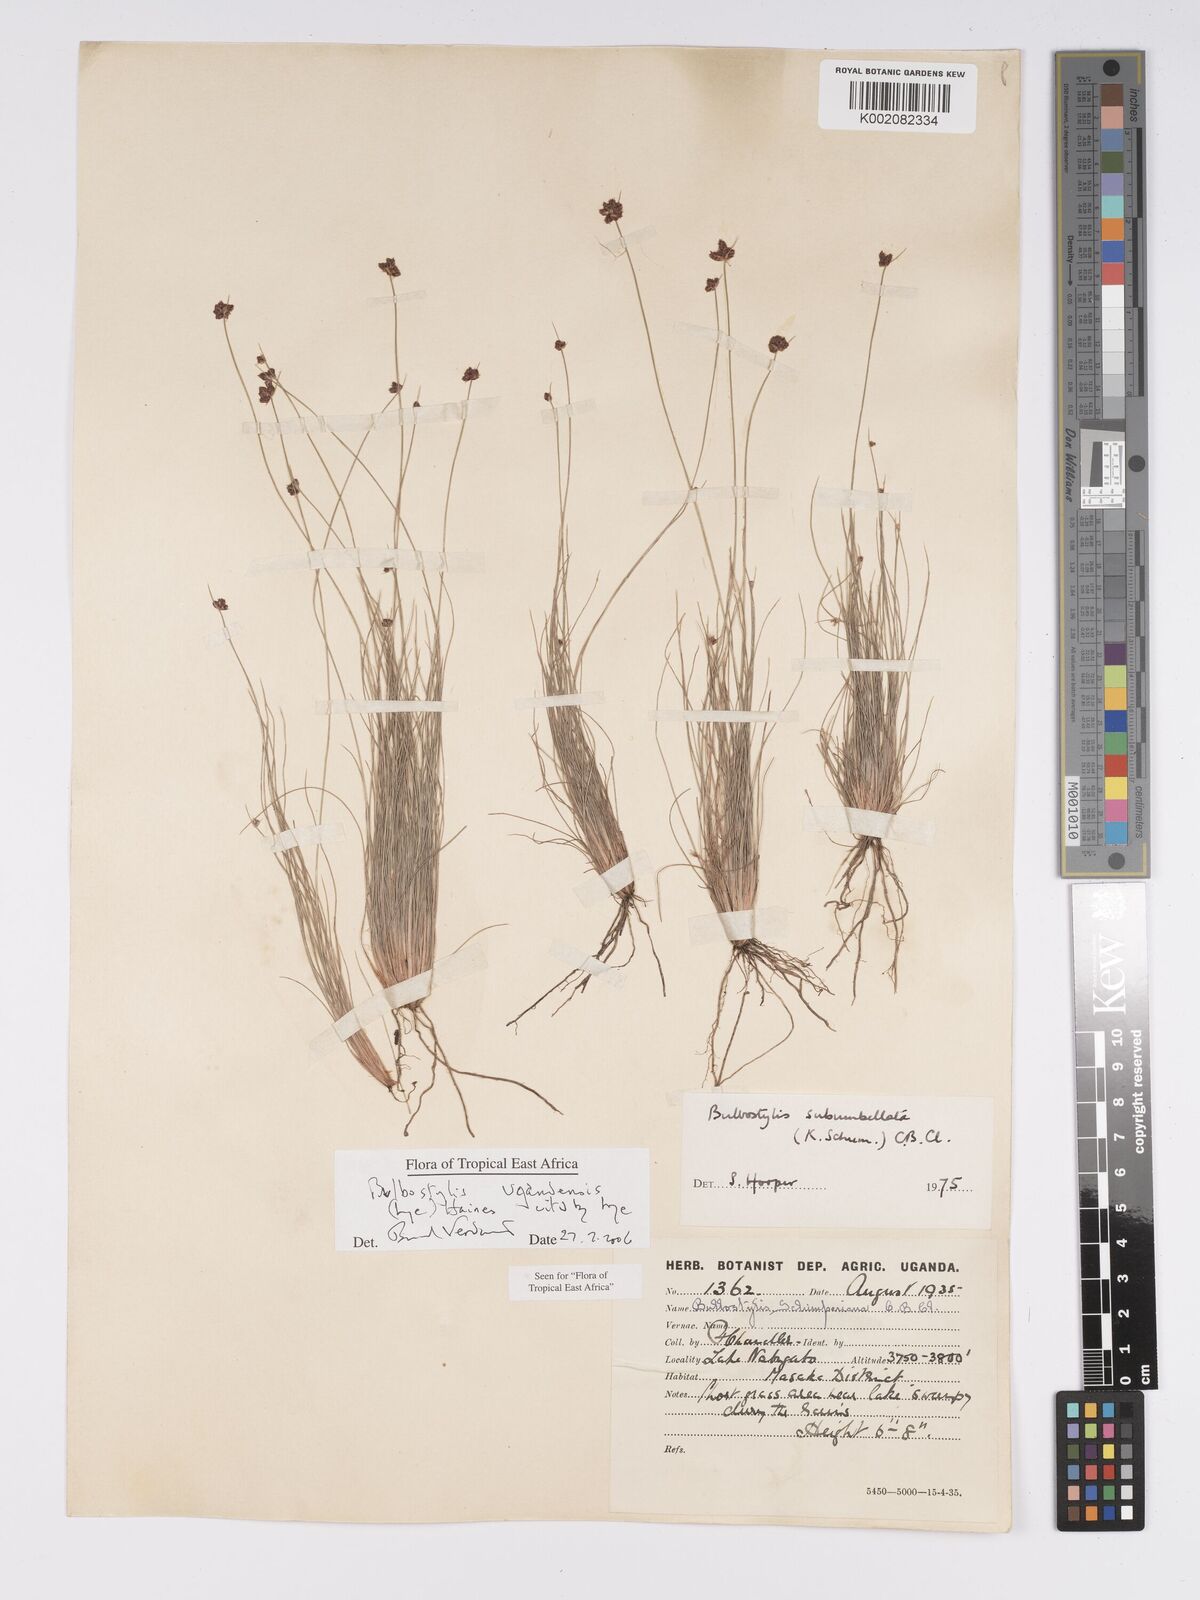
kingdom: Plantae
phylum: Tracheophyta
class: Liliopsida
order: Poales
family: Cyperaceae
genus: Bulbostylis
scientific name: Bulbostylis ugandensis
